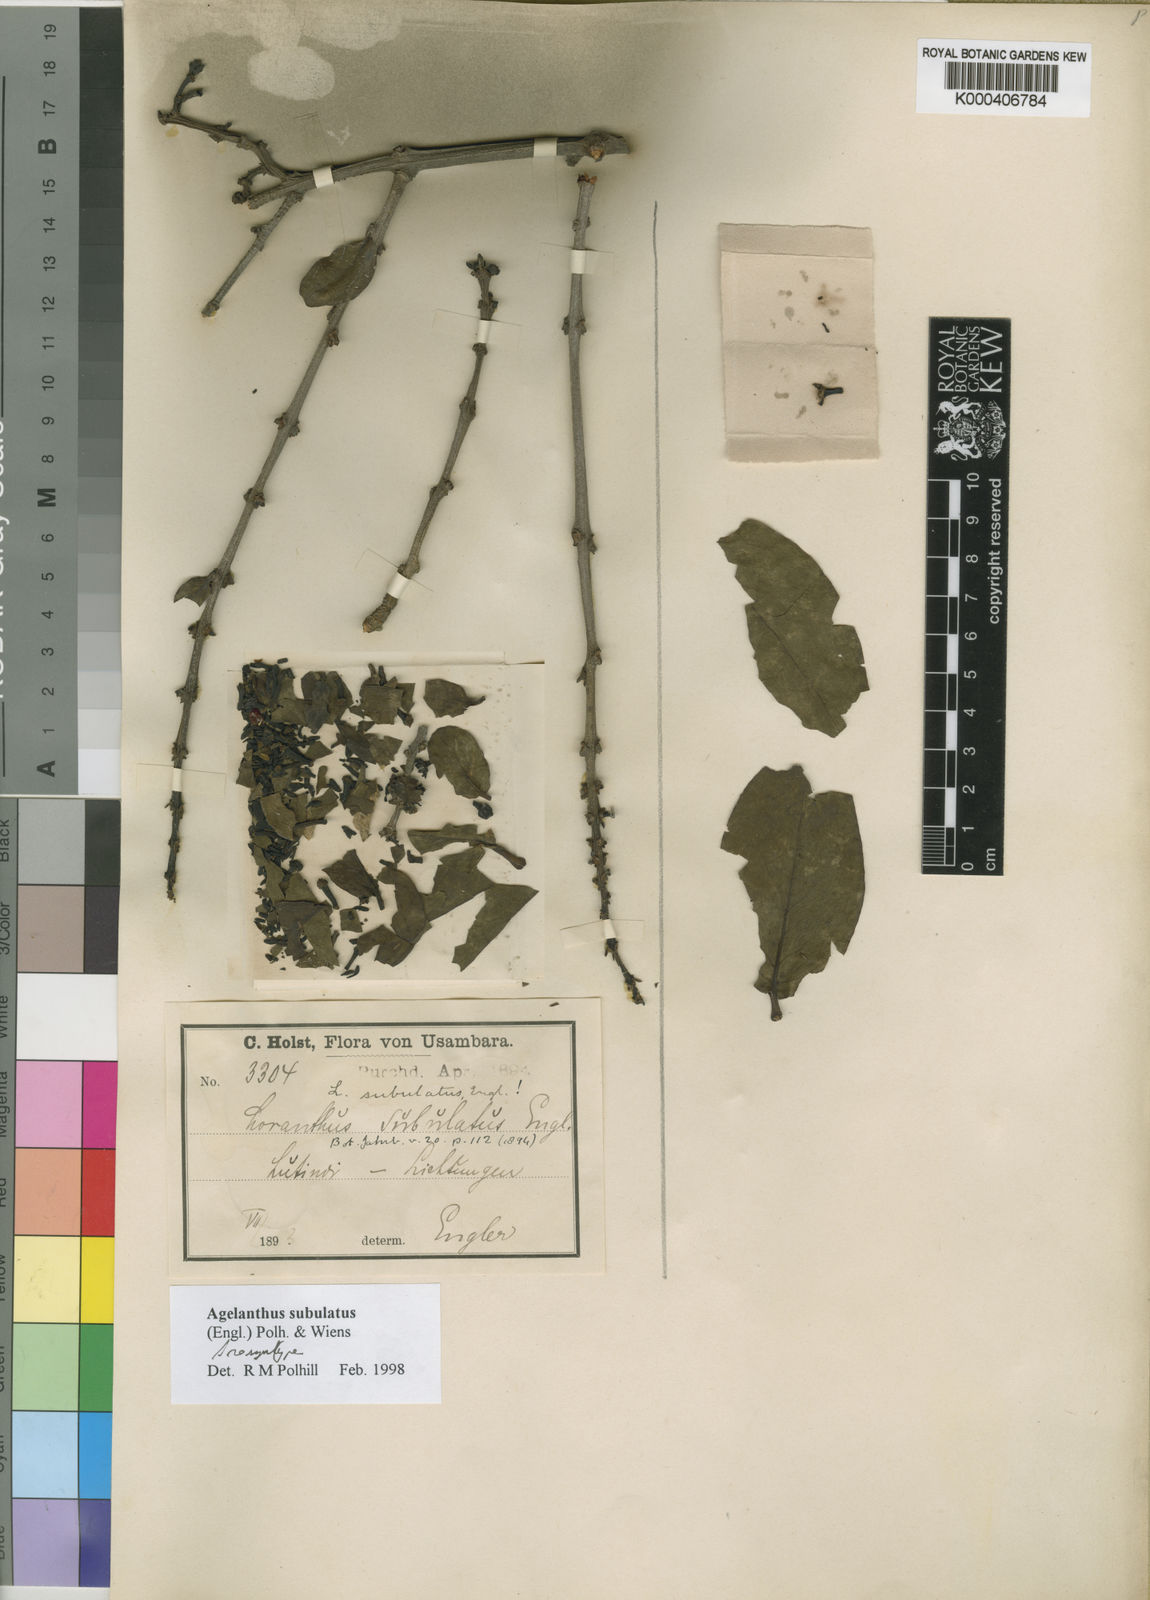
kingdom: Plantae
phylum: Tracheophyta
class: Magnoliopsida
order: Santalales
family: Loranthaceae
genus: Agelanthus
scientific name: Agelanthus subulatus
